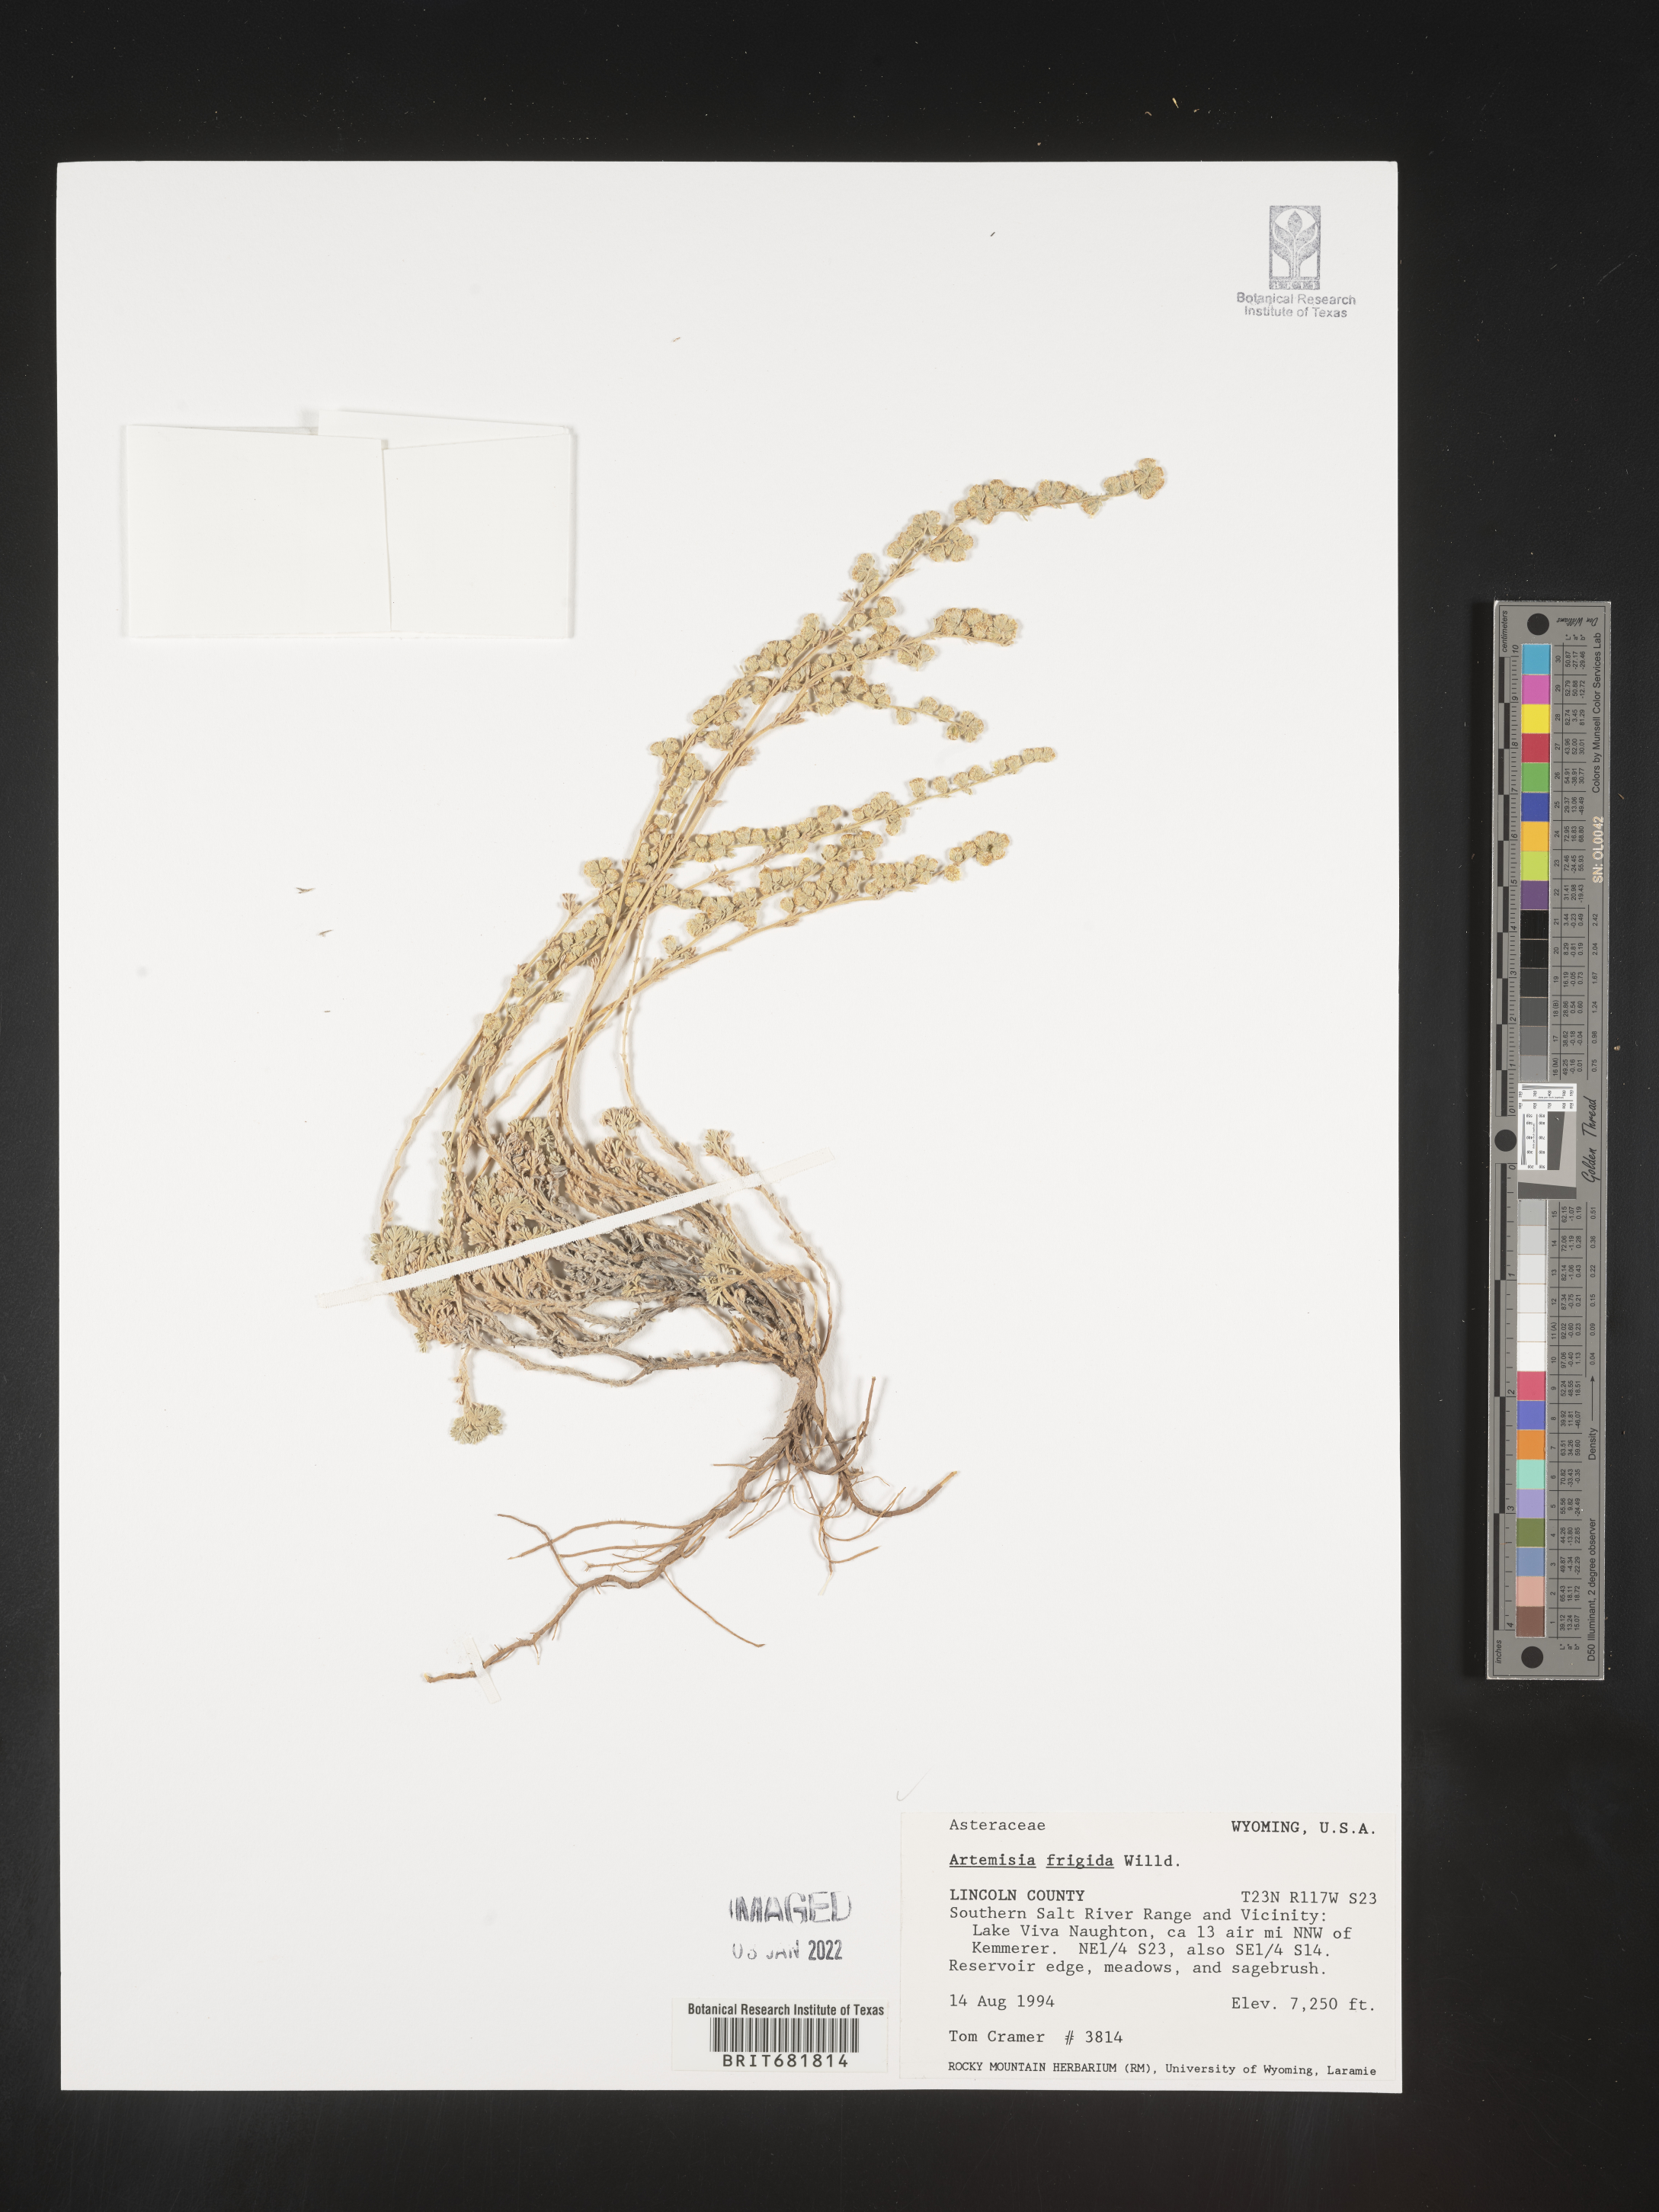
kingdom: Plantae
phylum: Tracheophyta
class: Magnoliopsida
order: Asterales
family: Asteraceae
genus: Artemisia
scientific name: Artemisia frigida
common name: Prairie sagewort
